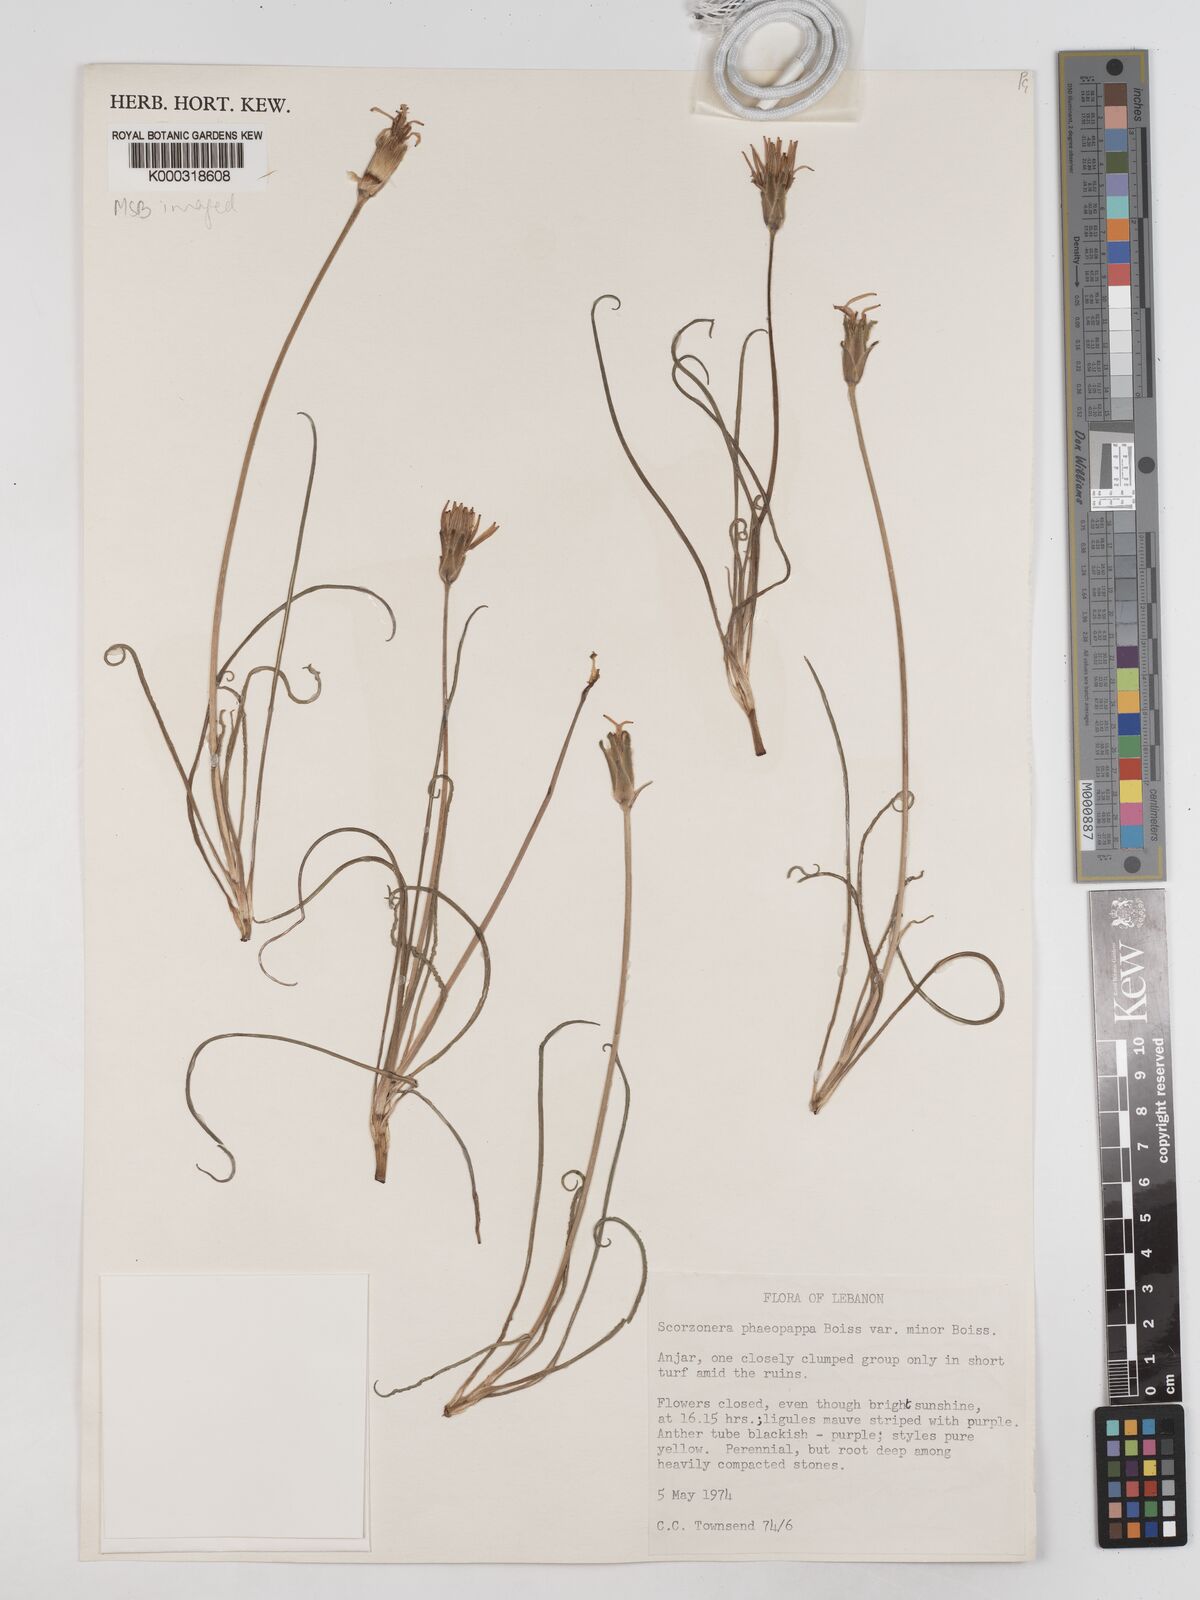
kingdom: Plantae
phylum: Tracheophyta
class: Magnoliopsida
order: Asterales
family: Asteraceae
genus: Pseudopodospermum
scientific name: Pseudopodospermum phaeopappum
